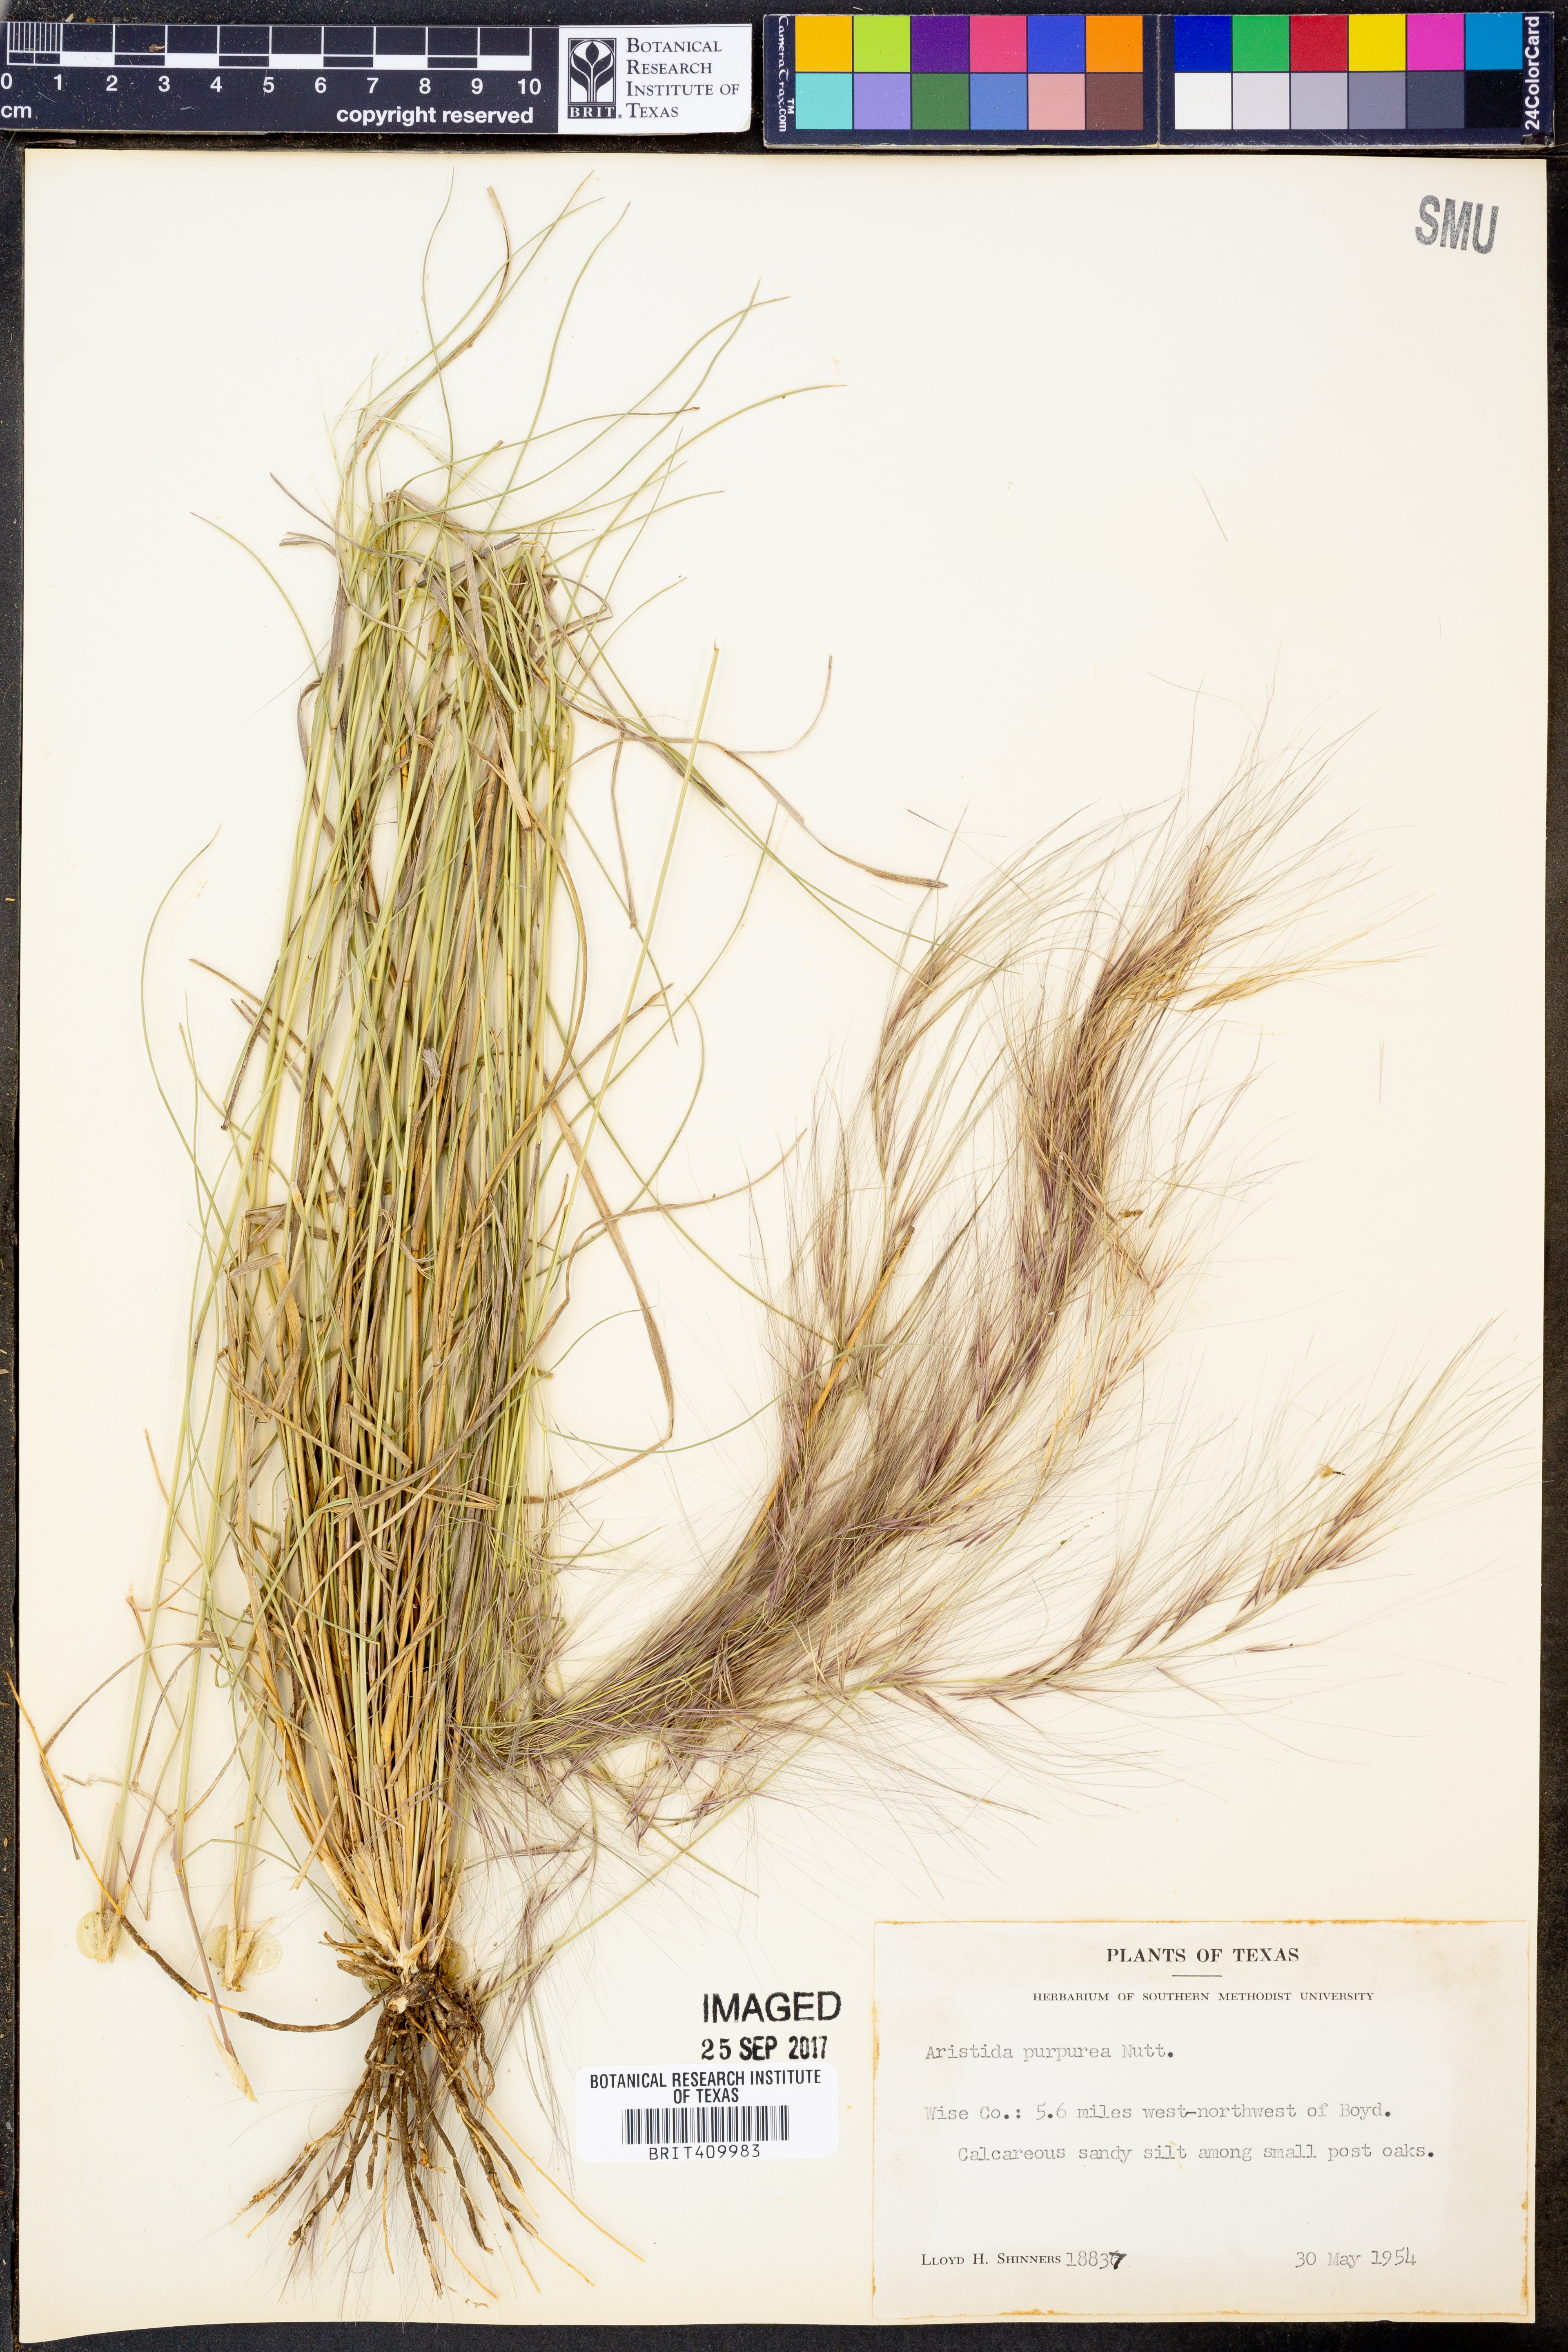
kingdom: Plantae
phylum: Tracheophyta
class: Liliopsida
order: Poales
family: Poaceae
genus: Aristida
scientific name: Aristida purpurea
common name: Purple threeawn
